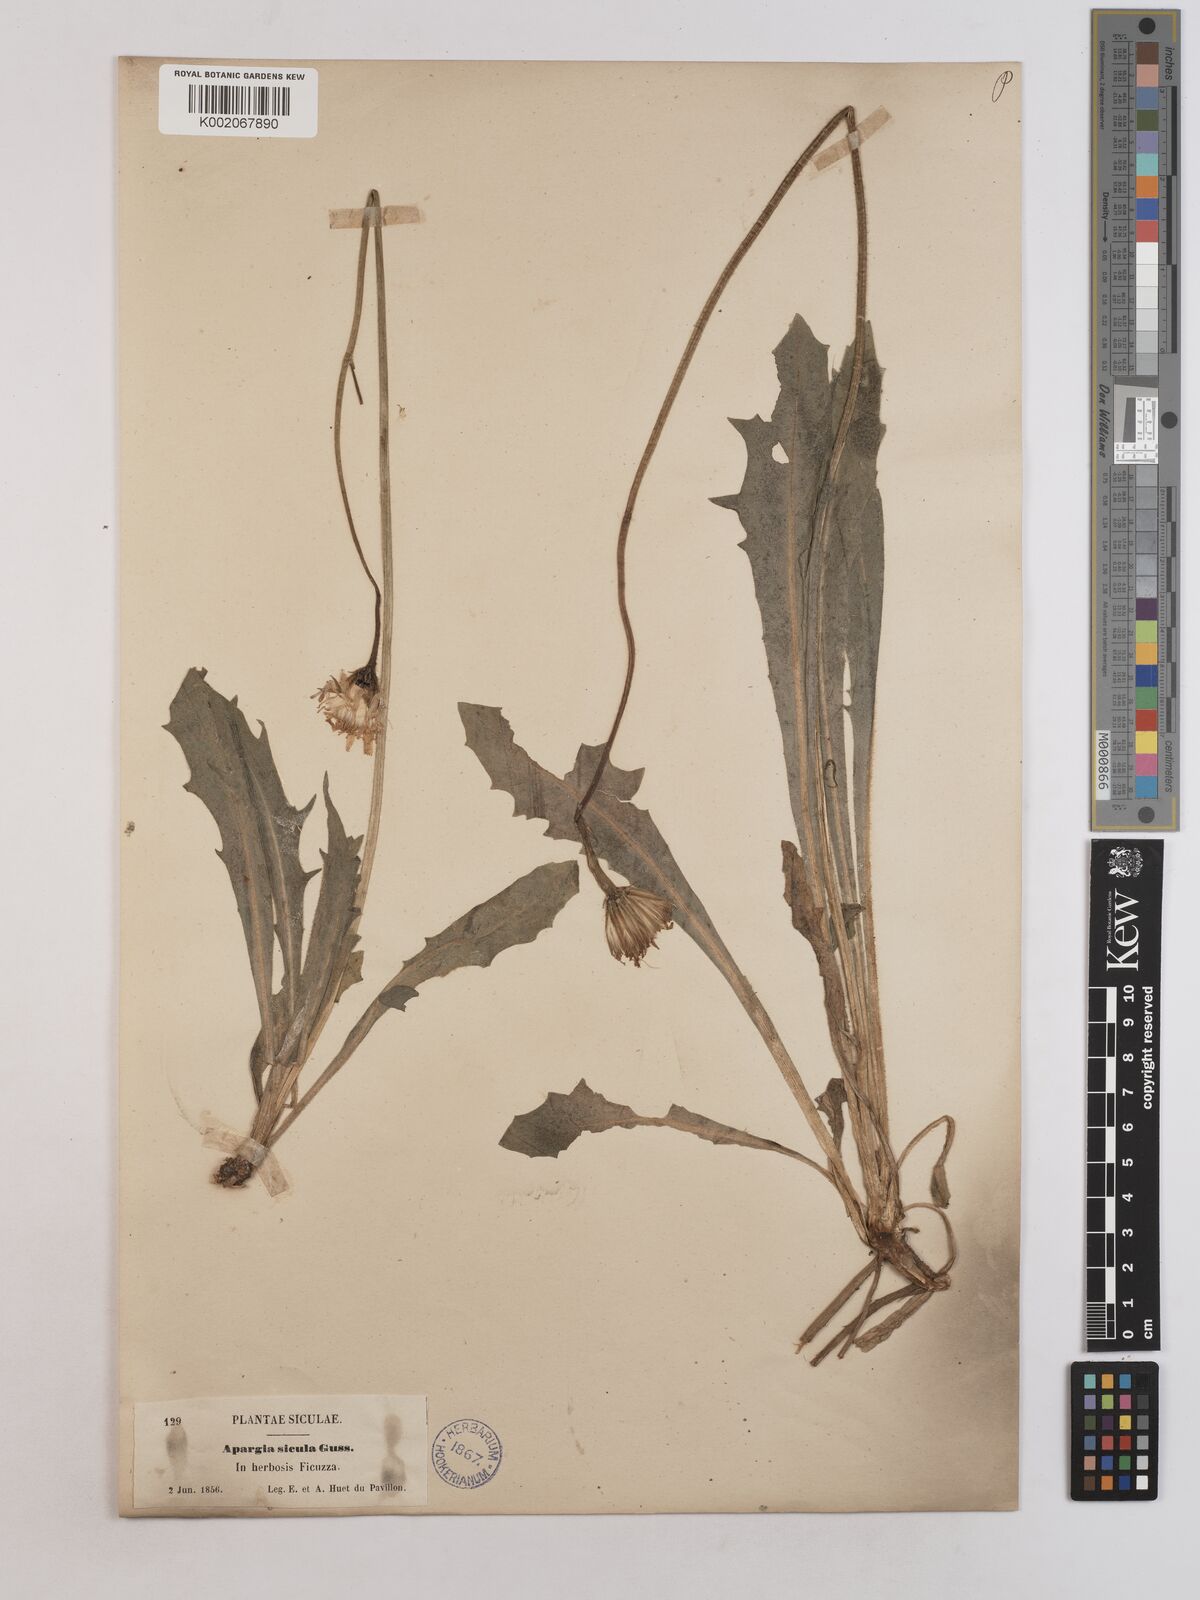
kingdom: Plantae
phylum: Tracheophyta
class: Magnoliopsida
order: Asterales
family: Asteraceae
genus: Leontodon
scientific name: Leontodon siculus
